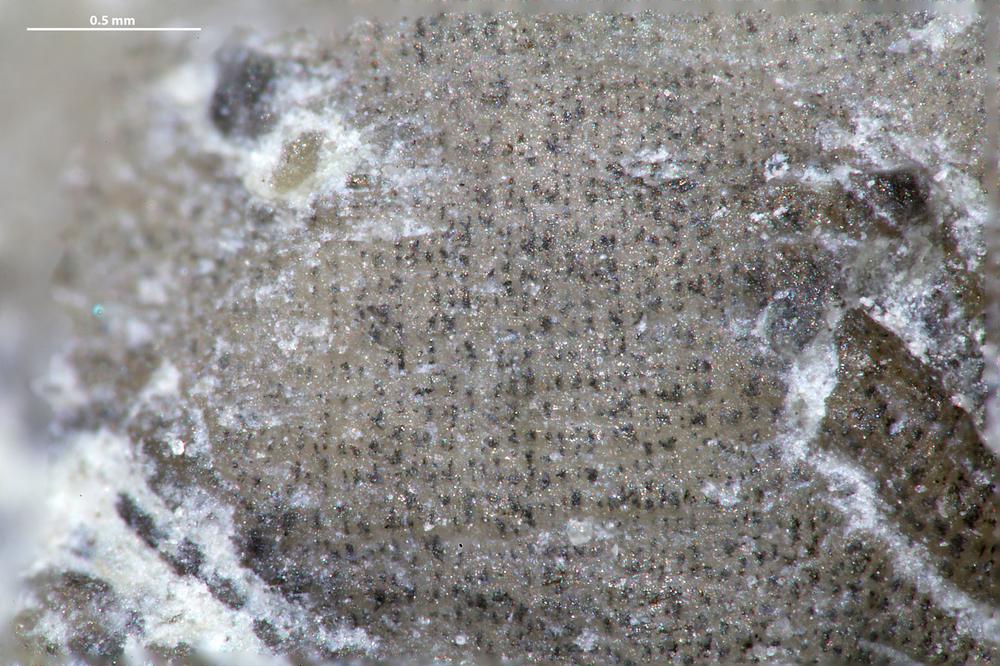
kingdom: Animalia
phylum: Brachiopoda
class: Craniata
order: Craniida
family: Craniidae
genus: Petrocrania
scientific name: Petrocrania
